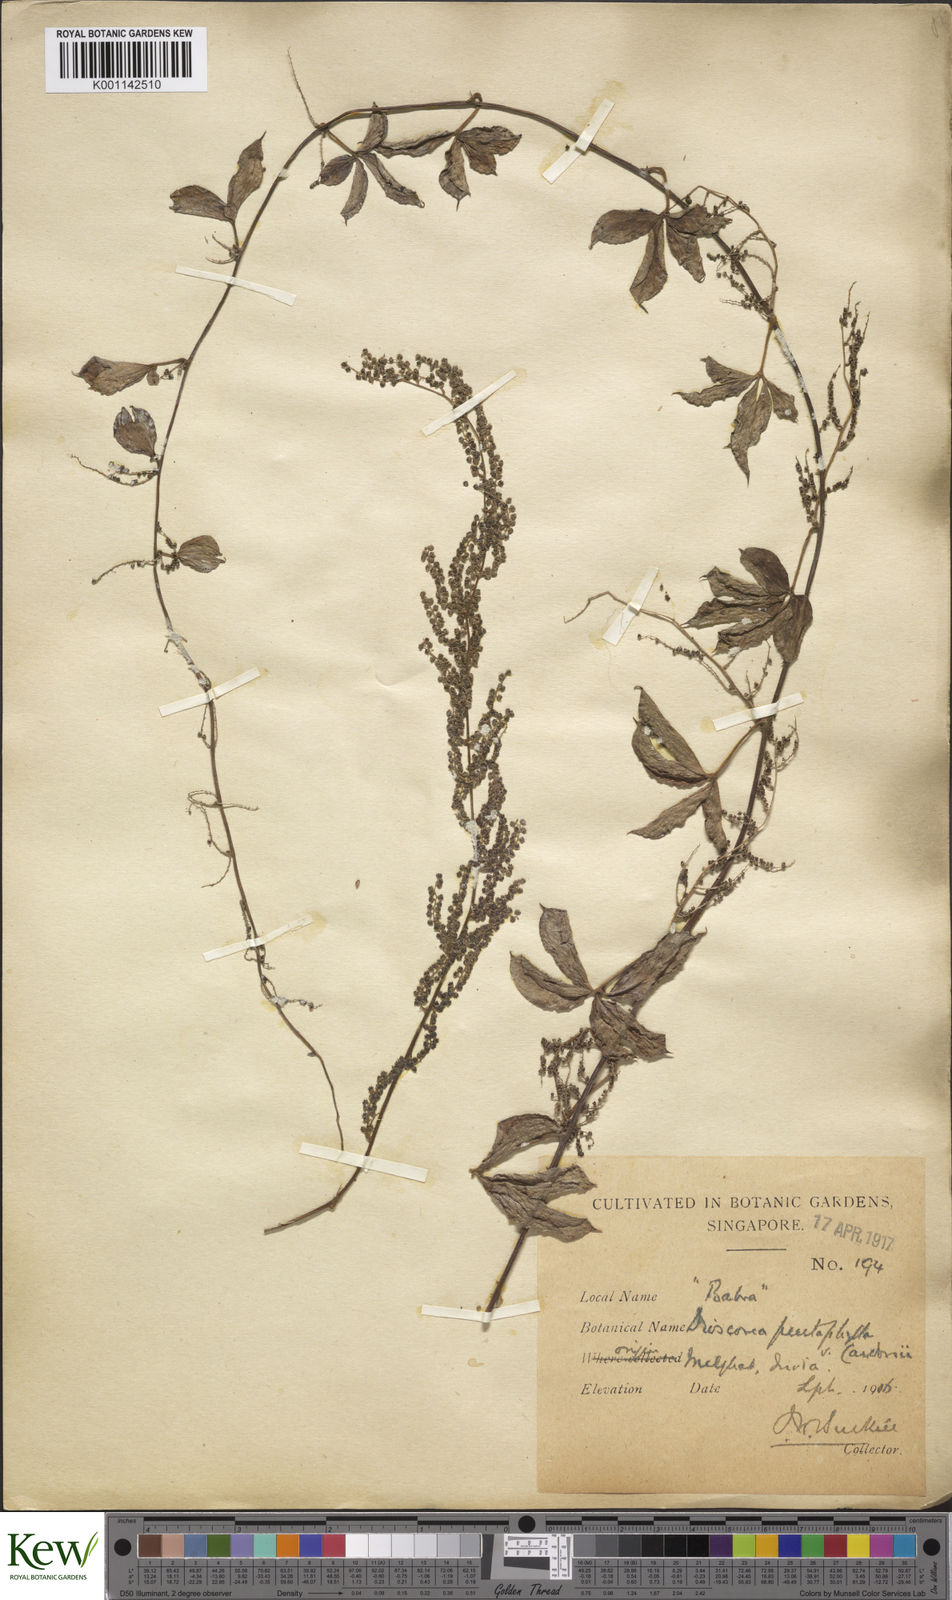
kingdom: Plantae
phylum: Tracheophyta
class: Liliopsida
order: Dioscoreales
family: Dioscoreaceae
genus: Dioscorea
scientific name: Dioscorea pentaphylla
